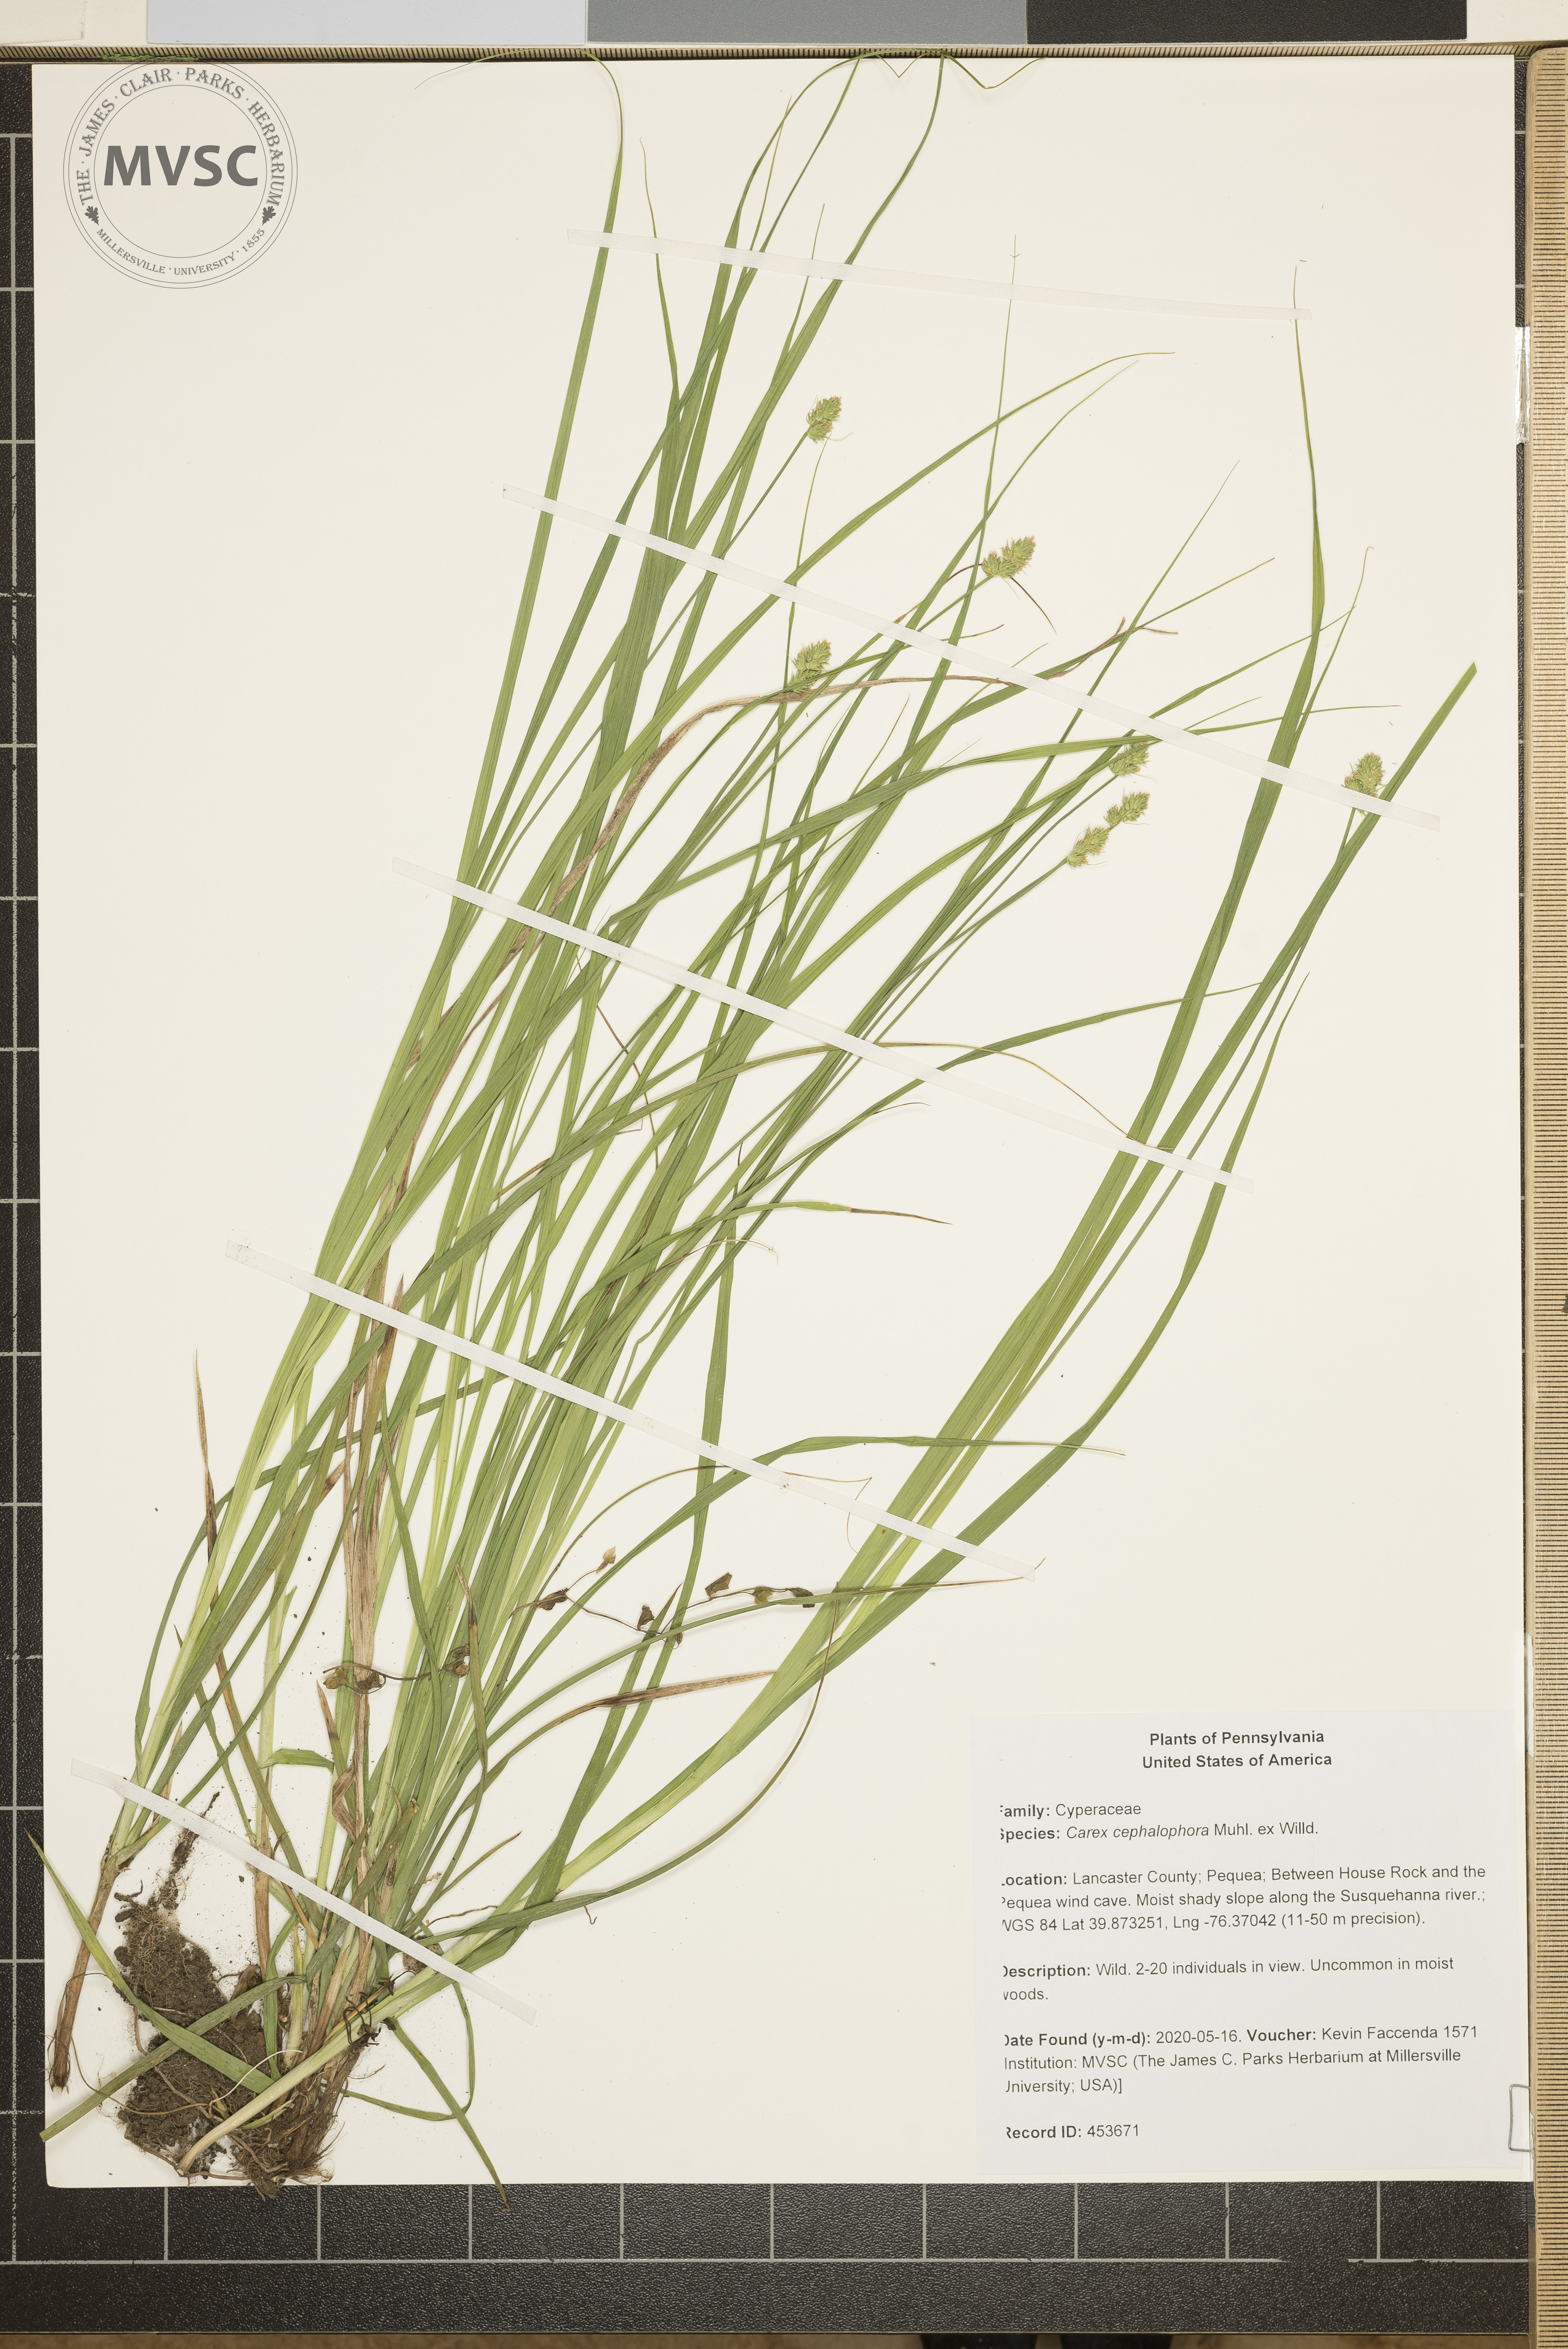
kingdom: Plantae
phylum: Tracheophyta
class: Liliopsida
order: Poales
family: Cyperaceae
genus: Carex
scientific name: Carex cephalophora
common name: Oval-headed sedge
